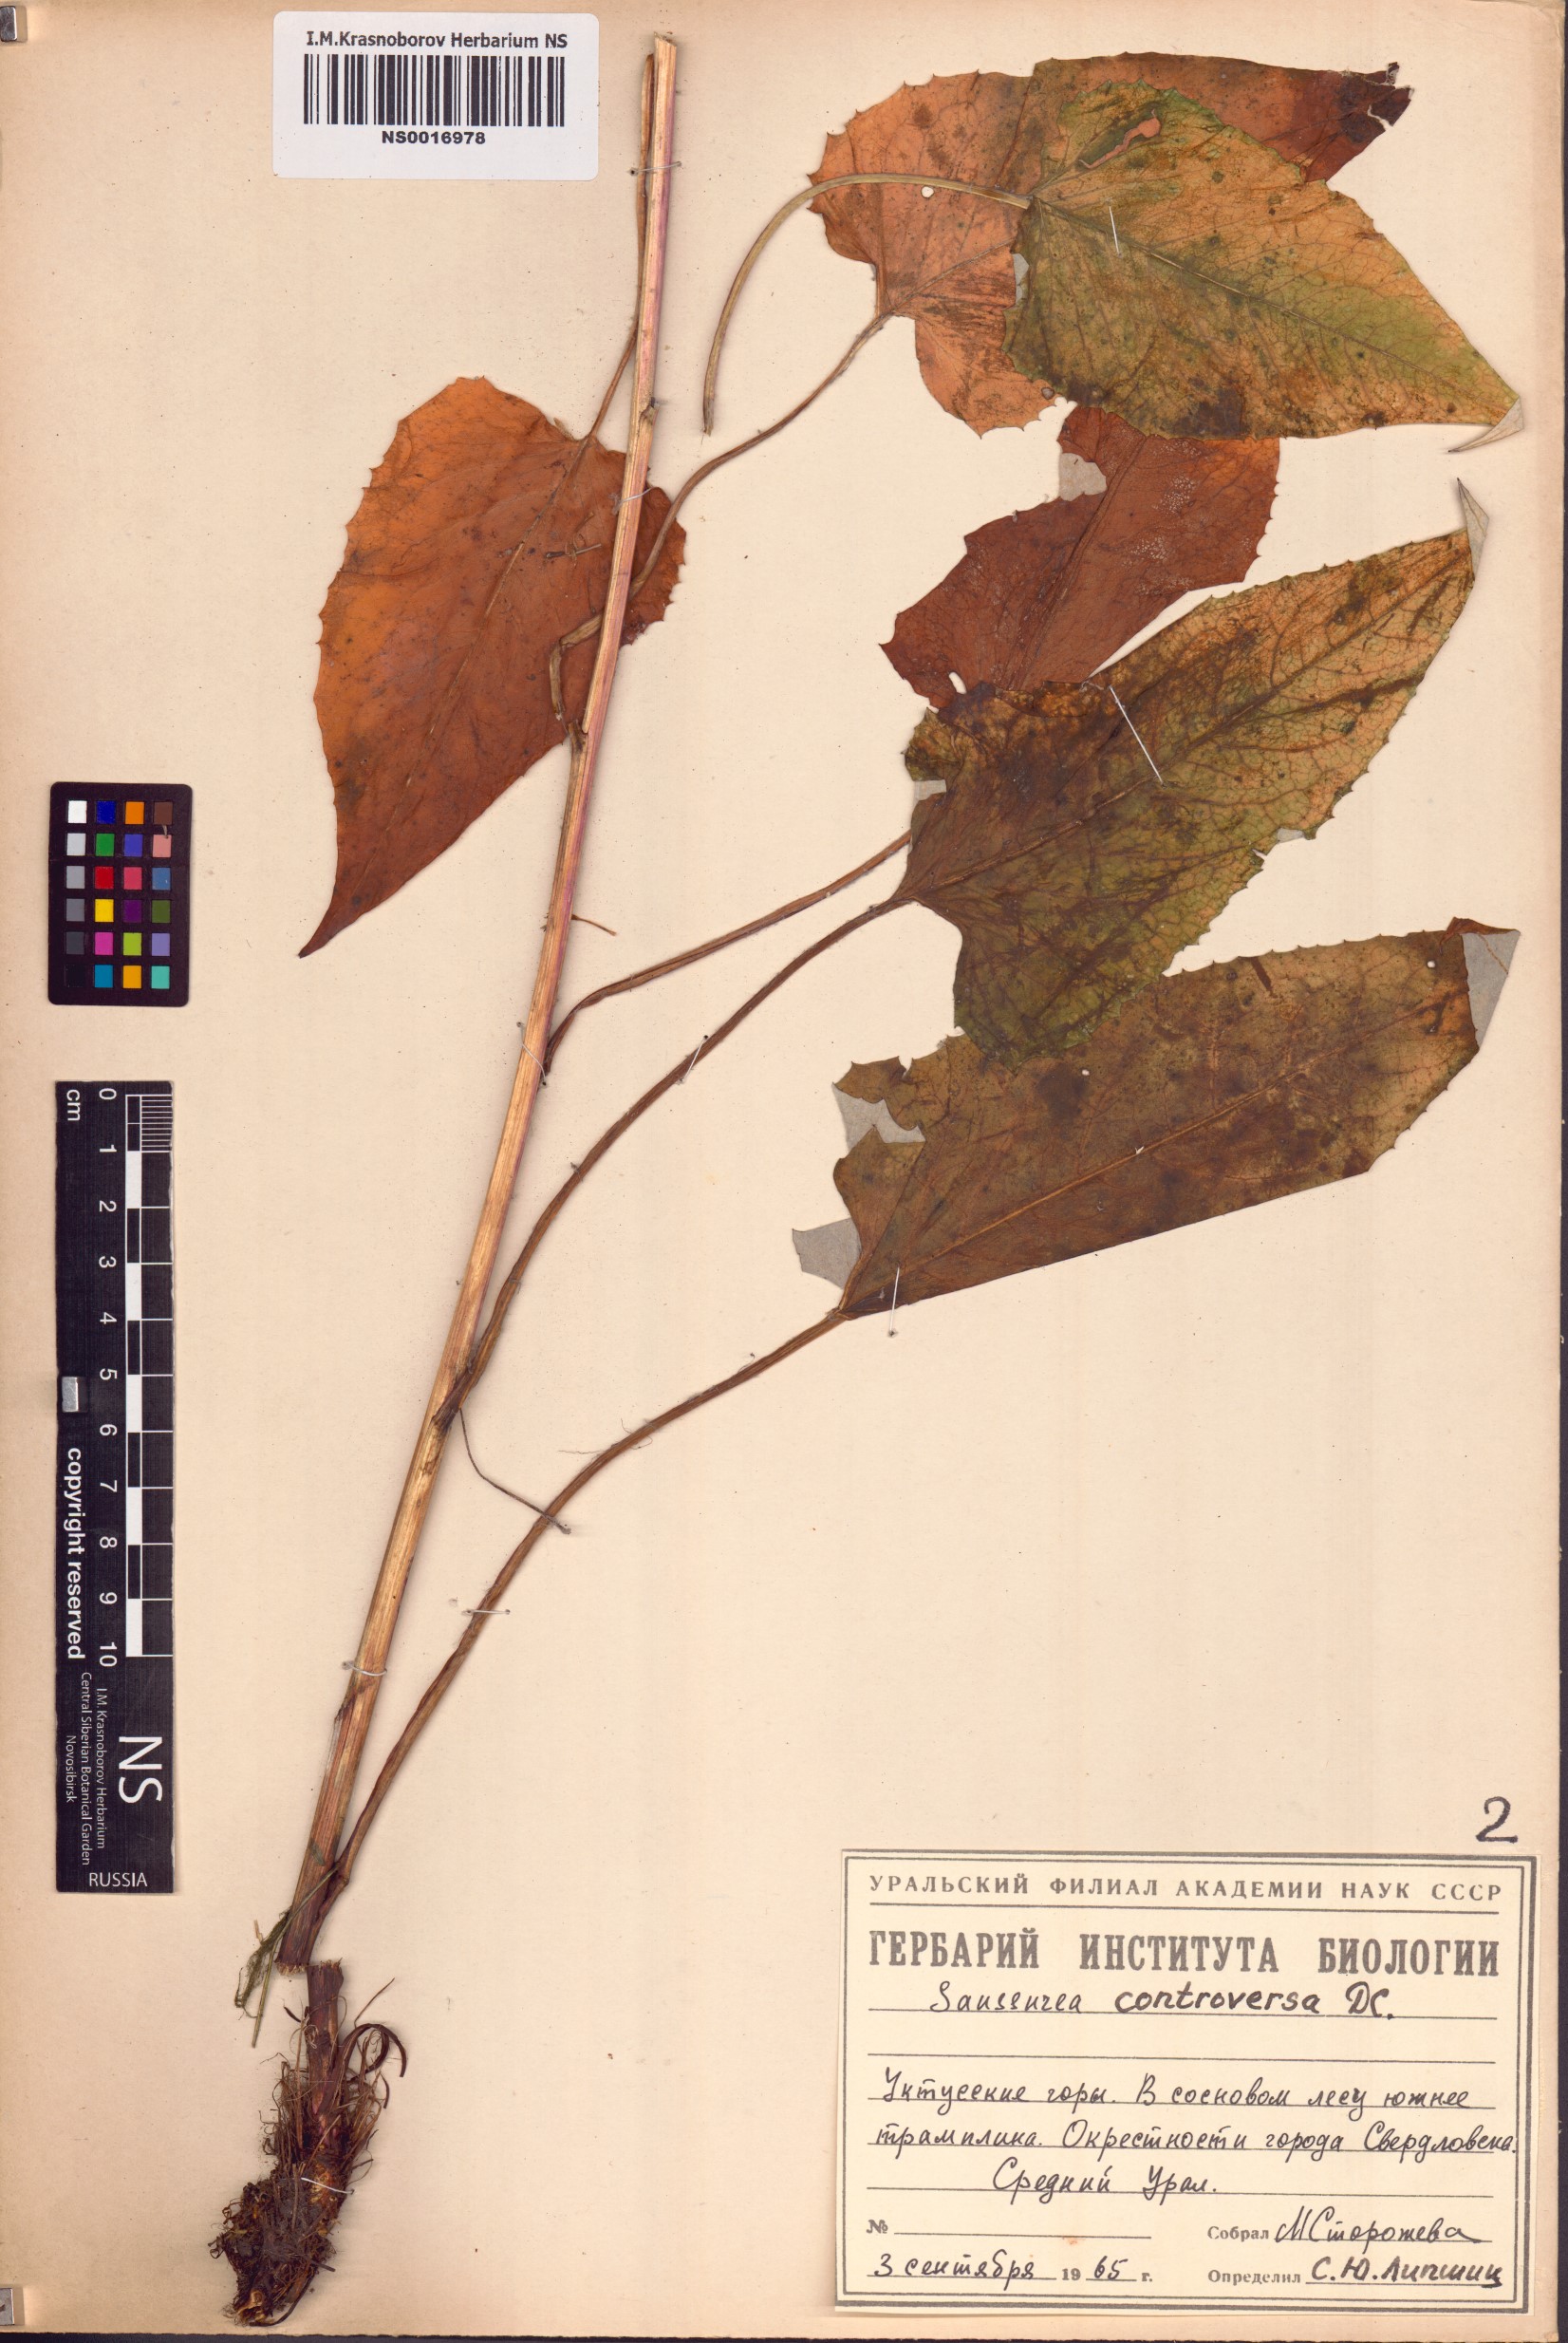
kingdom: Plantae
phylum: Tracheophyta
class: Magnoliopsida
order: Asterales
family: Asteraceae
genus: Saussurea
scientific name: Saussurea controversa
